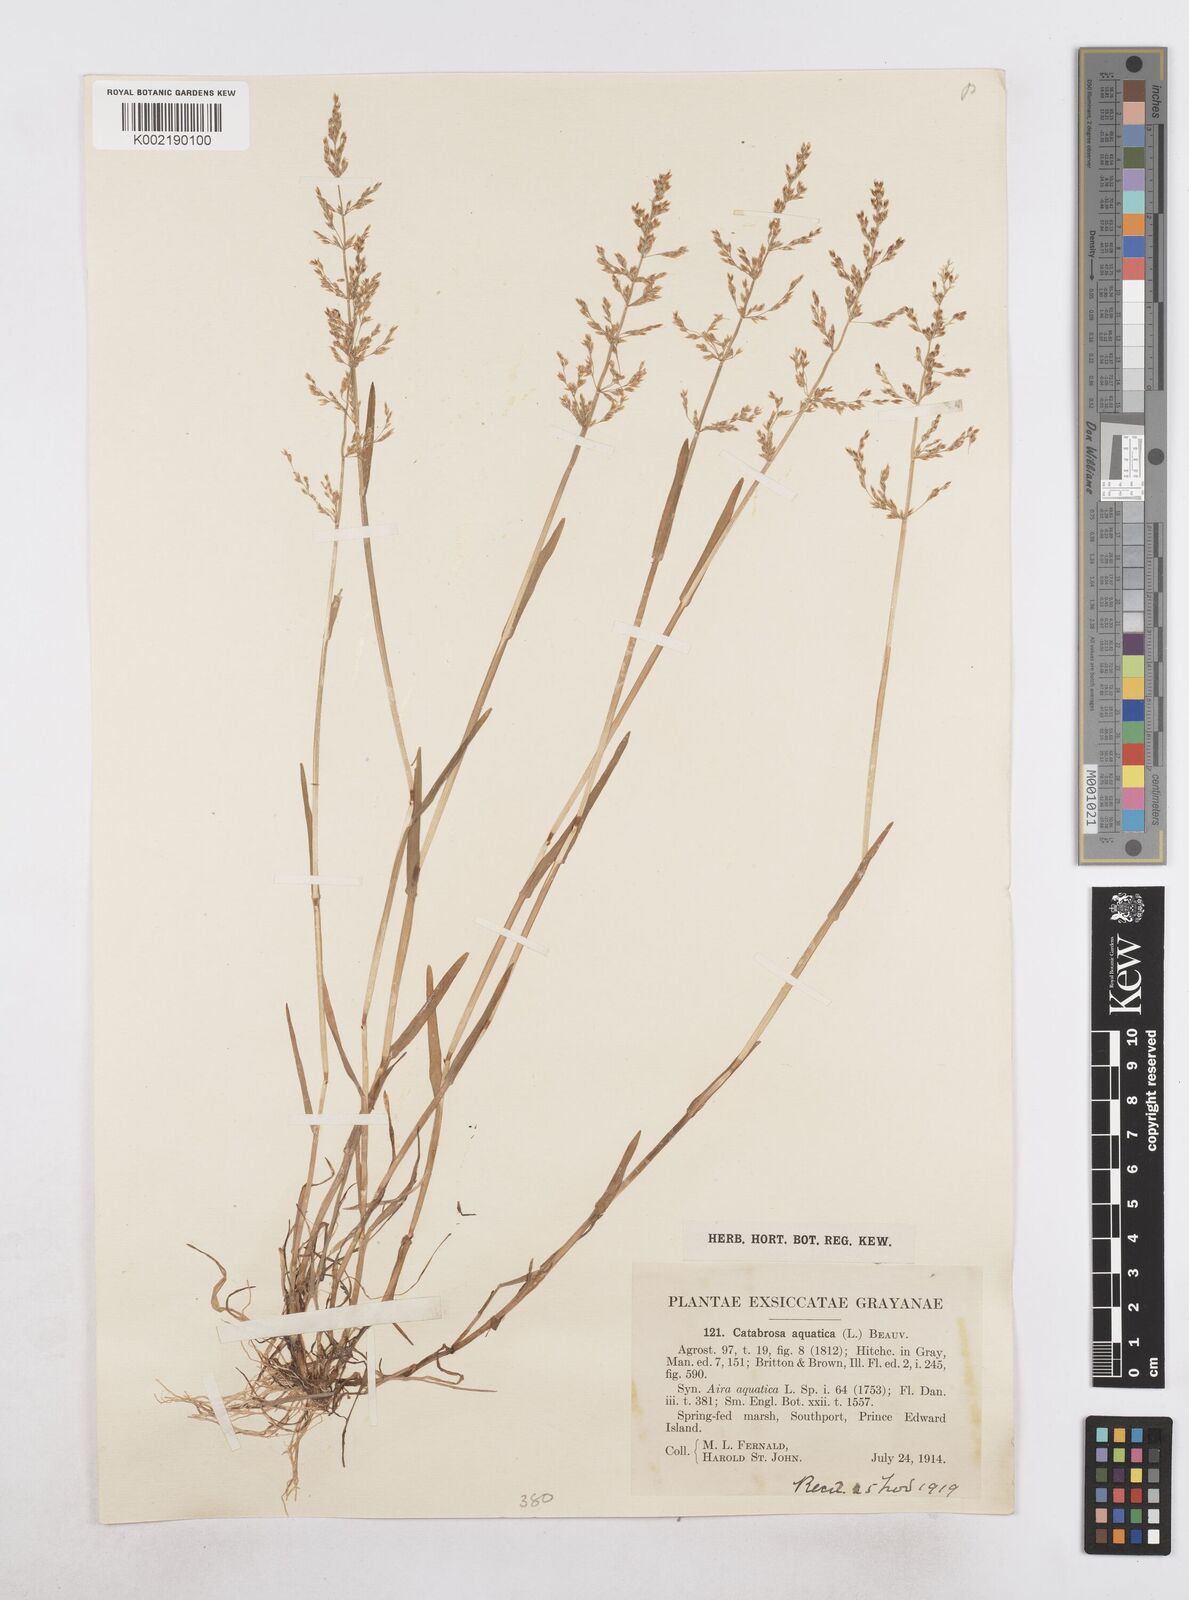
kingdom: Plantae
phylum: Tracheophyta
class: Liliopsida
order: Poales
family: Poaceae
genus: Catabrosa
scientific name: Catabrosa aquatica
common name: Whorl-grass
